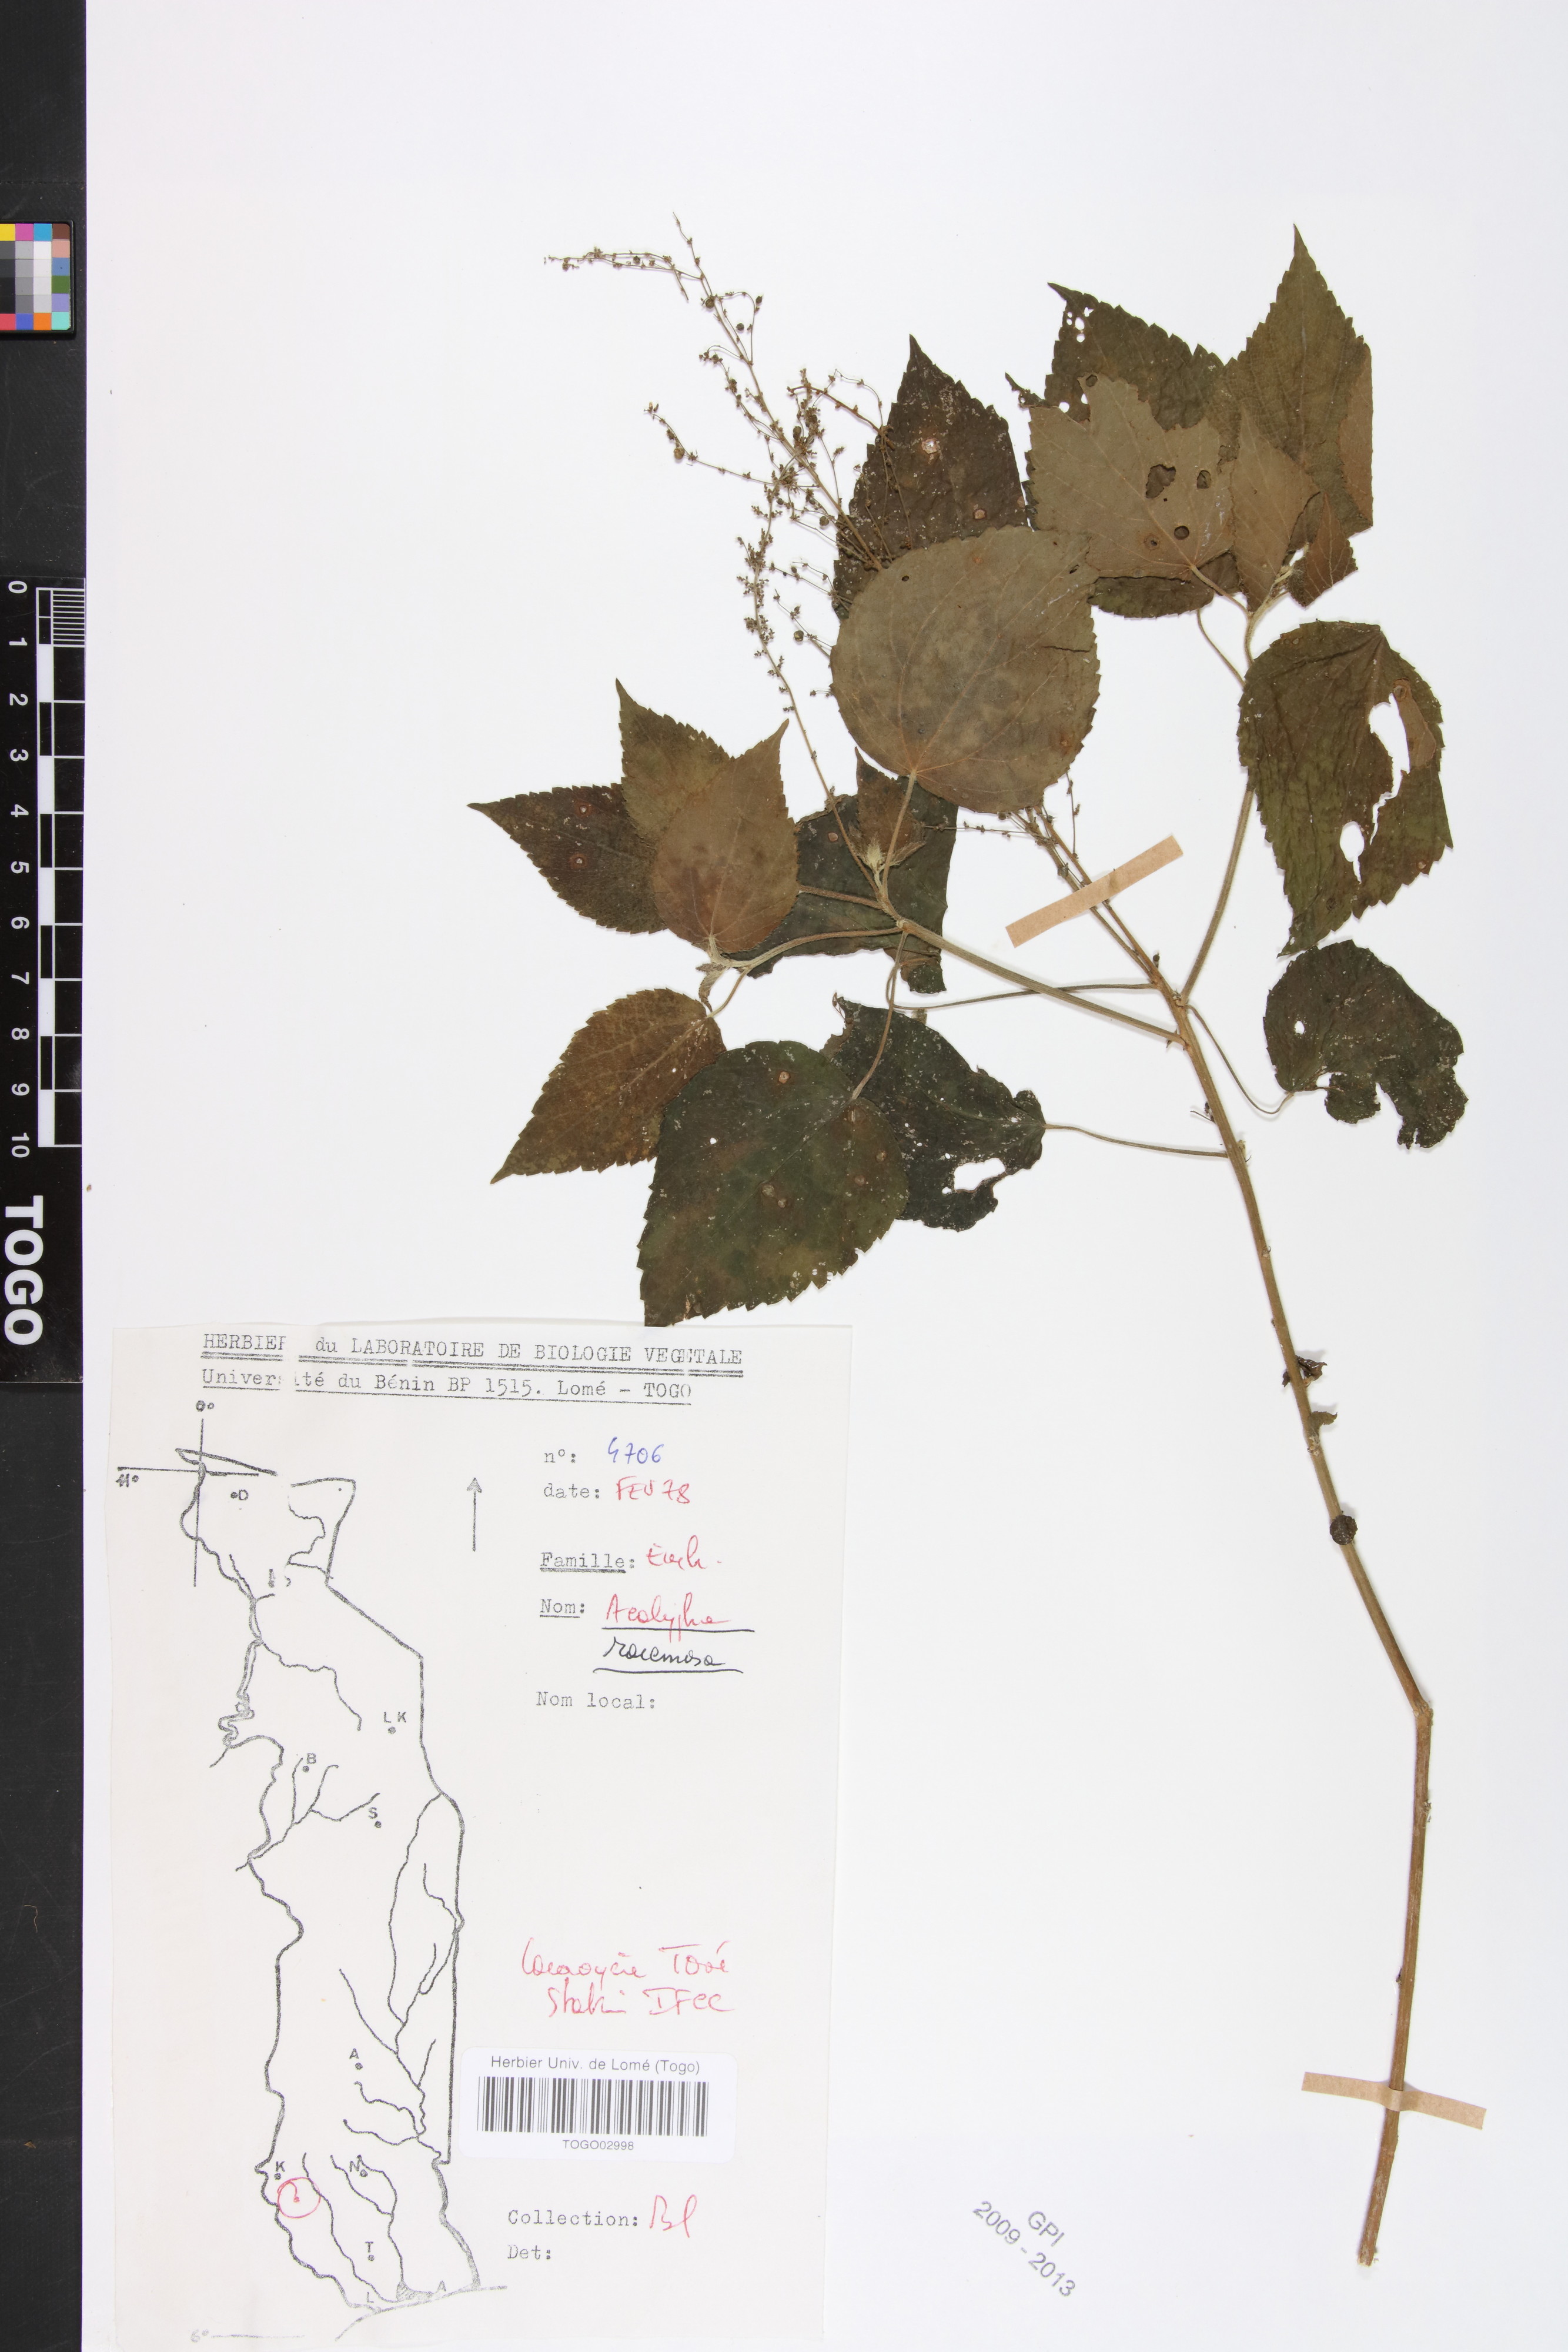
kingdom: Plantae
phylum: Tracheophyta
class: Magnoliopsida
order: Malpighiales
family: Euphorbiaceae
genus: Acalypha
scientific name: Acalypha paniculata
